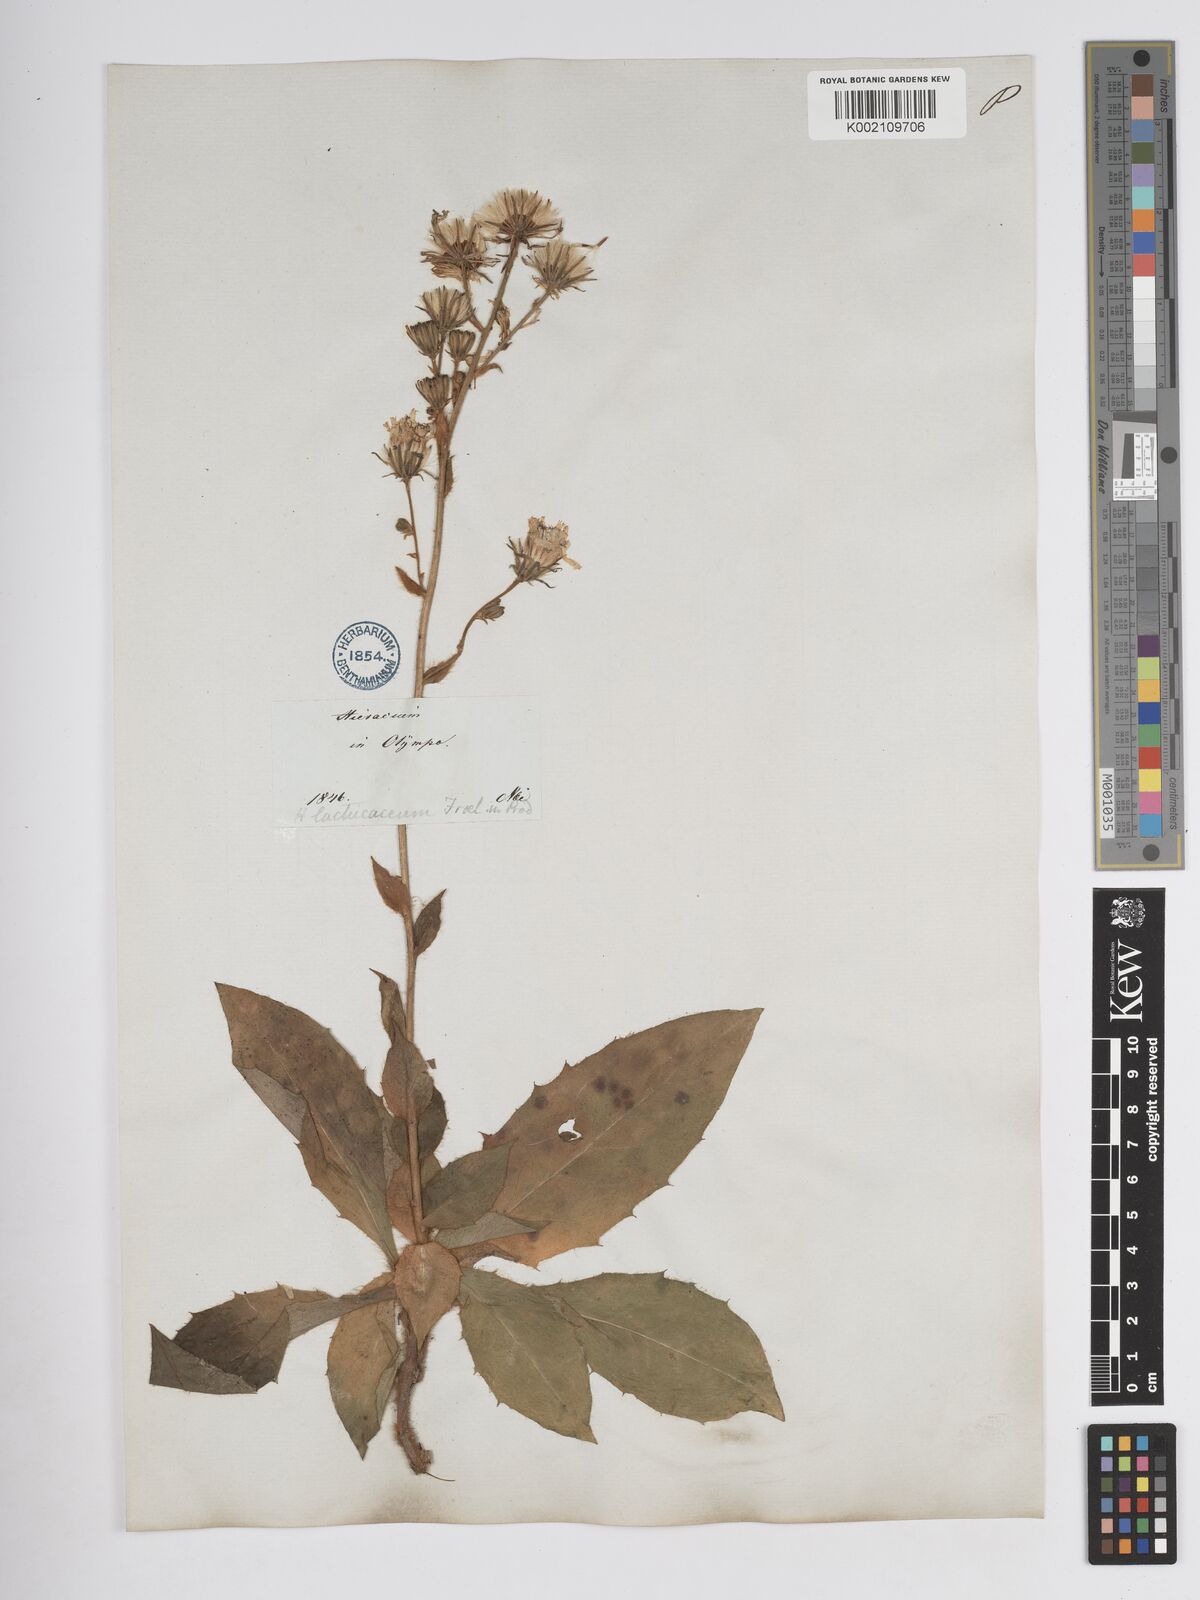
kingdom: Plantae
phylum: Tracheophyta
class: Magnoliopsida
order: Asterales
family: Asteraceae
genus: Hieracium
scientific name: Hieracium nobile
